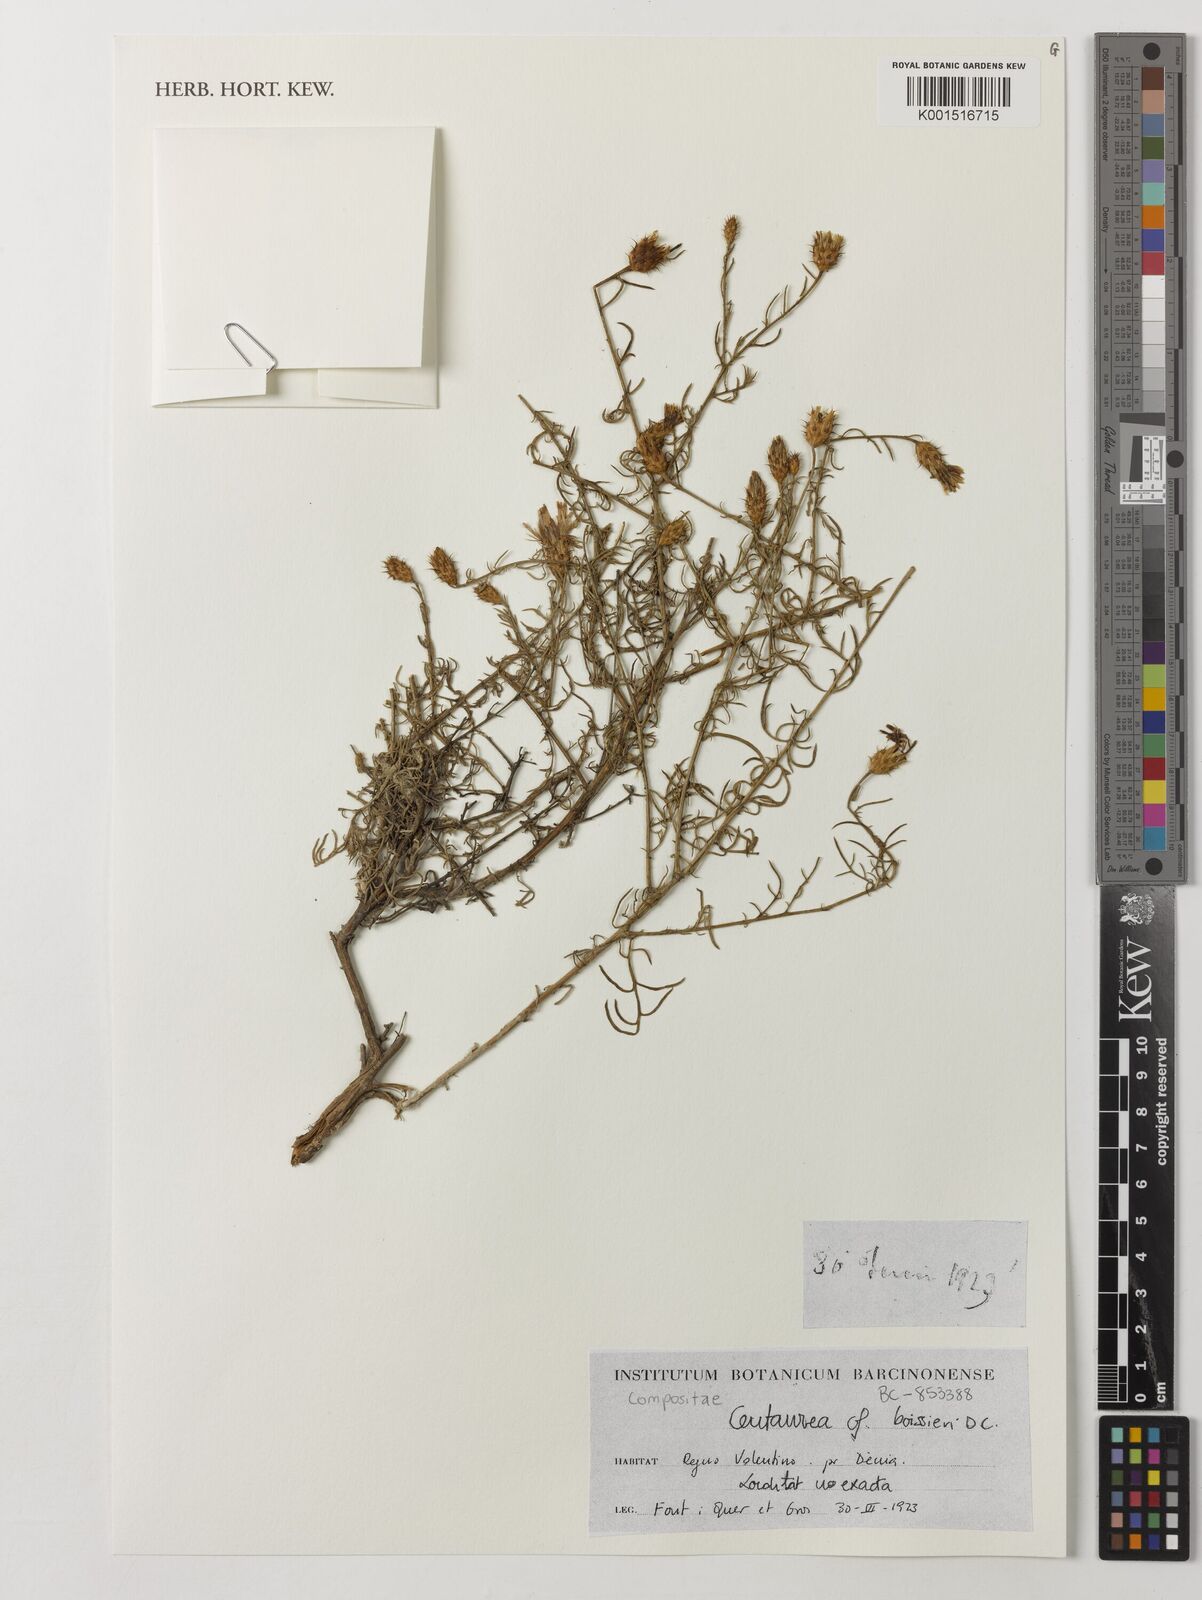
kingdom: Plantae
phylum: Tracheophyta
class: Magnoliopsida
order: Asterales
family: Asteraceae
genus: Centaurea
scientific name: Centaurea boissieri
